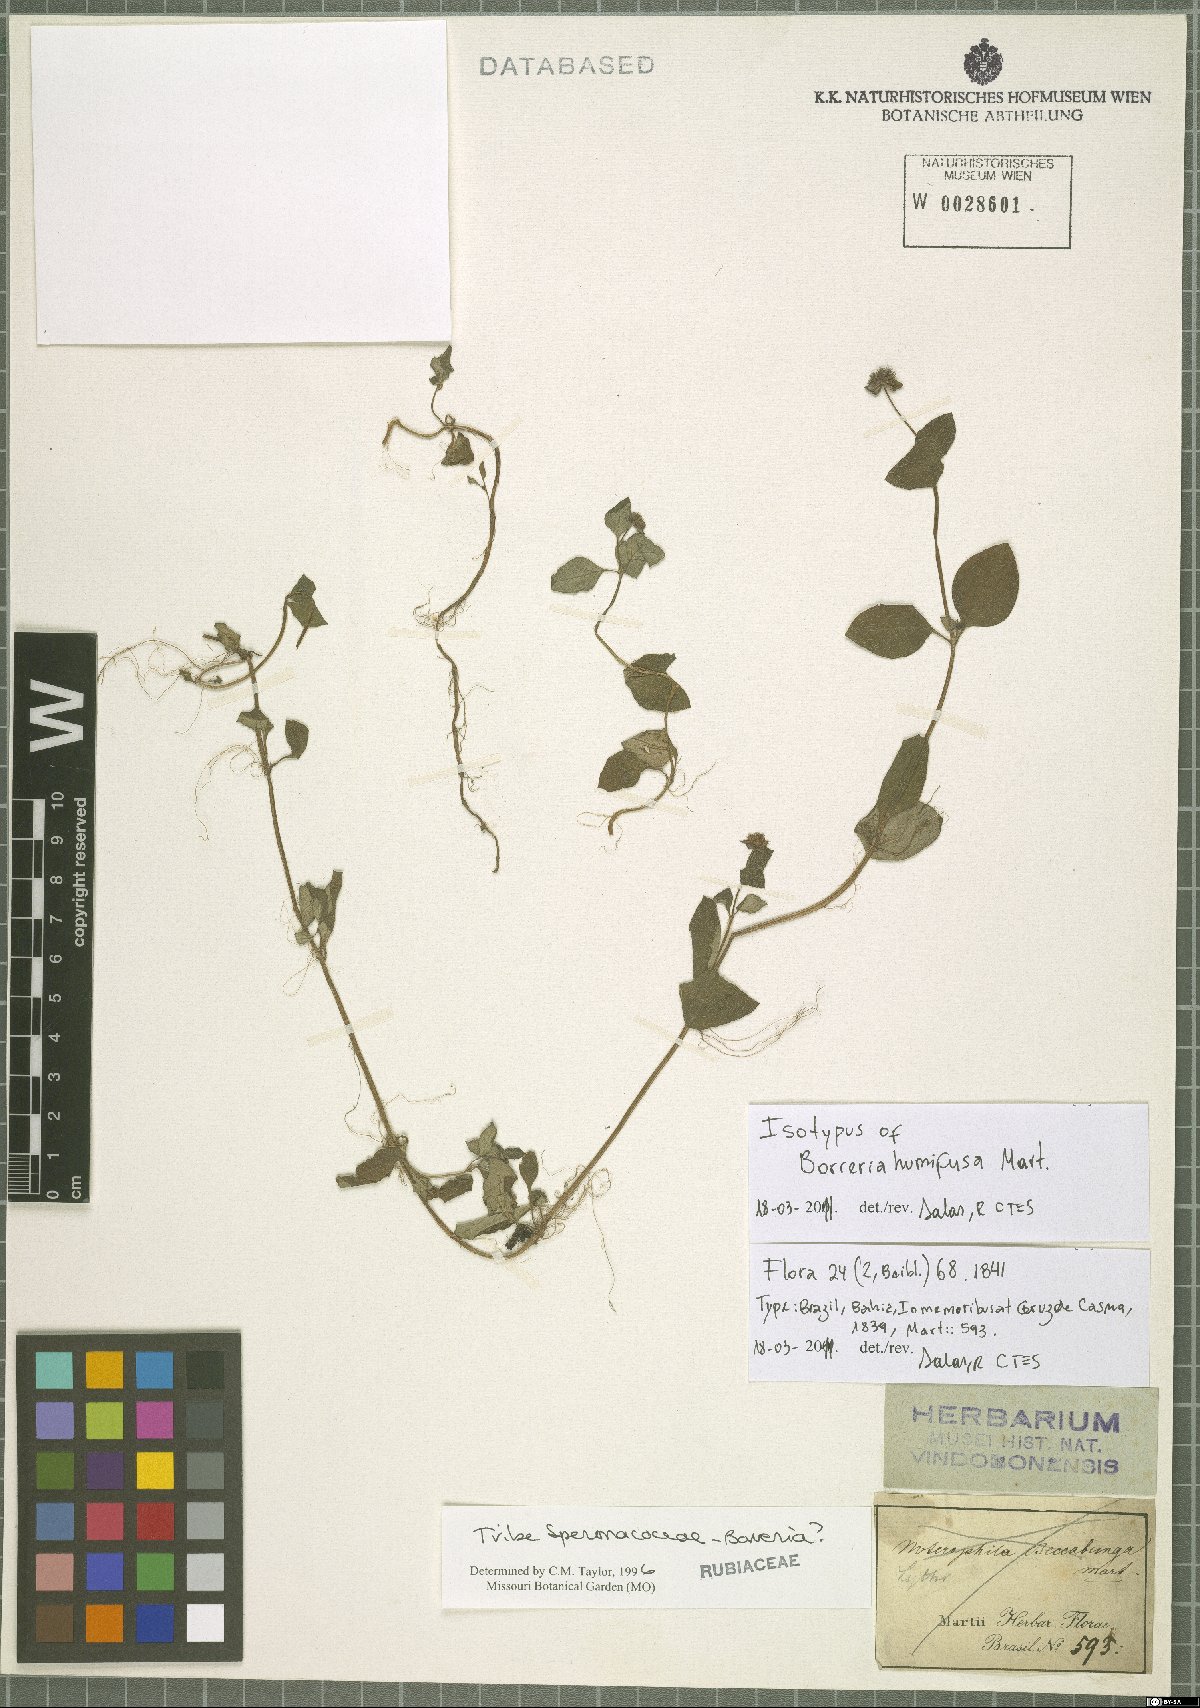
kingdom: Plantae
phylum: Tracheophyta
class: Magnoliopsida
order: Gentianales
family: Rubiaceae
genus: Spermacoce
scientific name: Spermacoce scabiosoides
